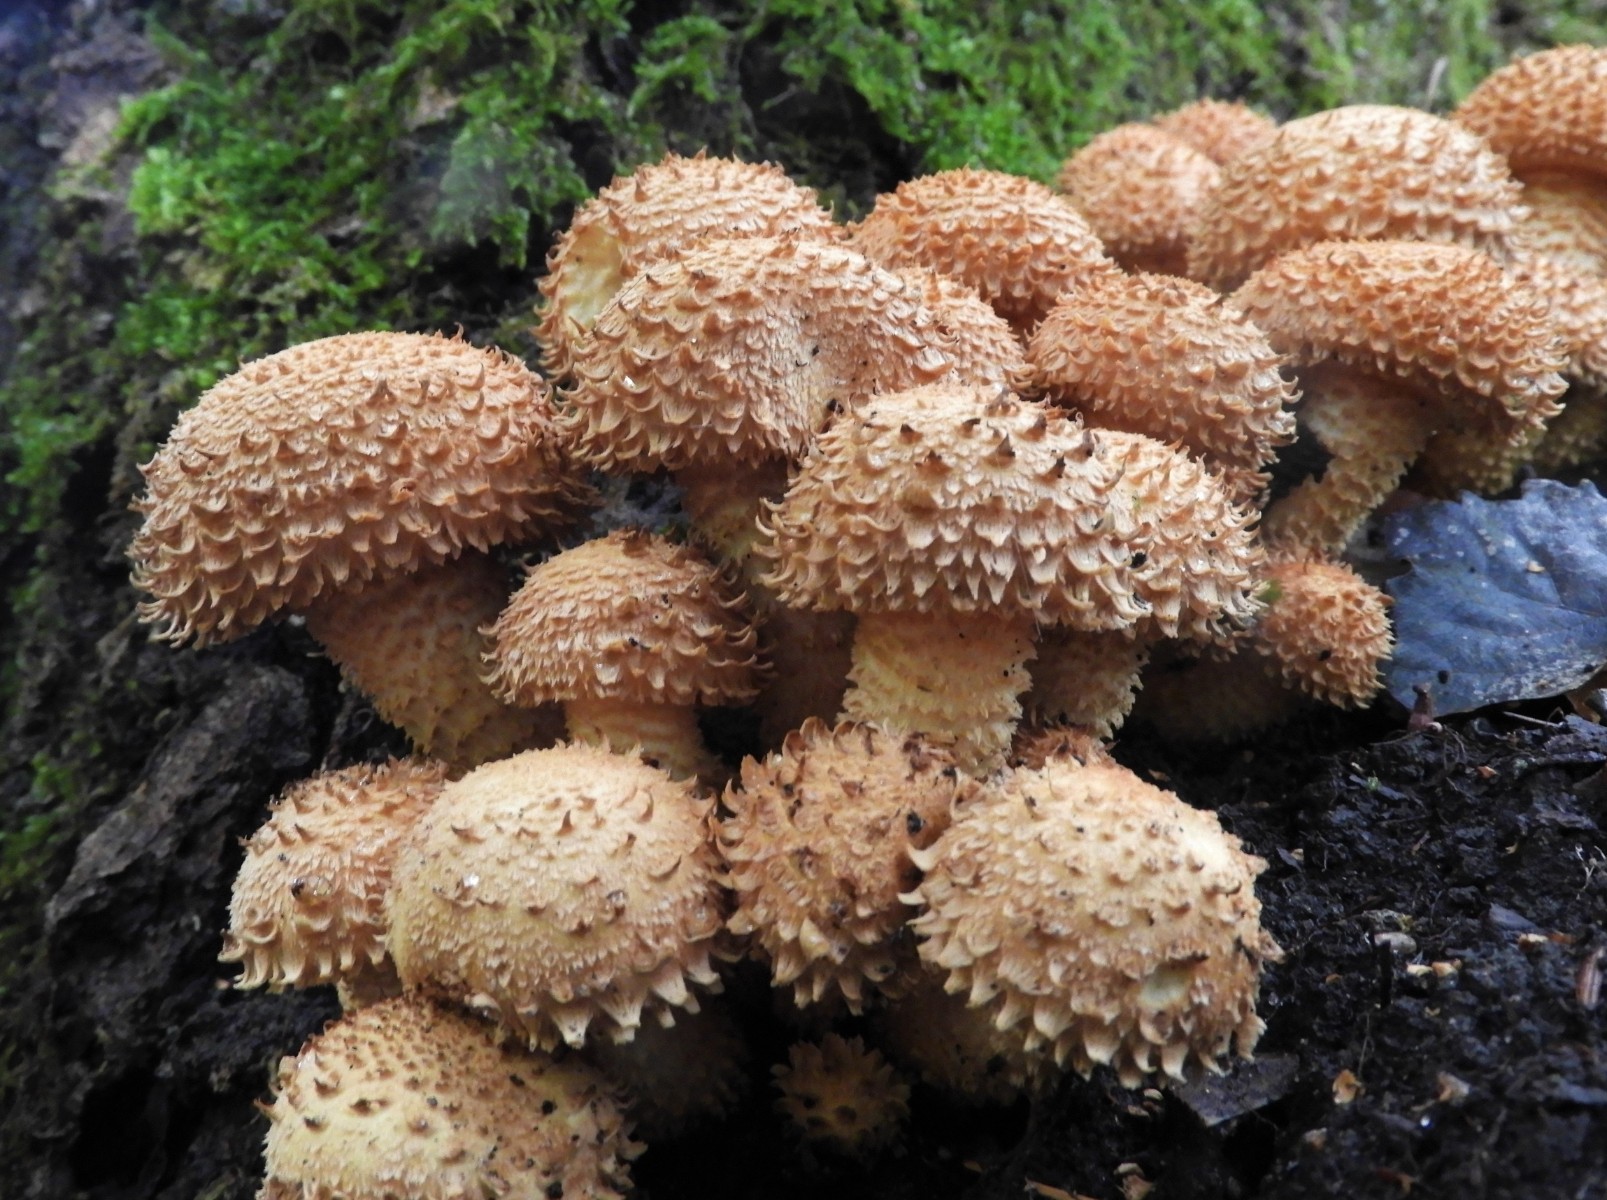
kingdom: Fungi
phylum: Basidiomycota
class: Agaricomycetes
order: Agaricales
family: Strophariaceae
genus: Pholiota
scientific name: Pholiota squarrosa
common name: krumskællet skælhat
